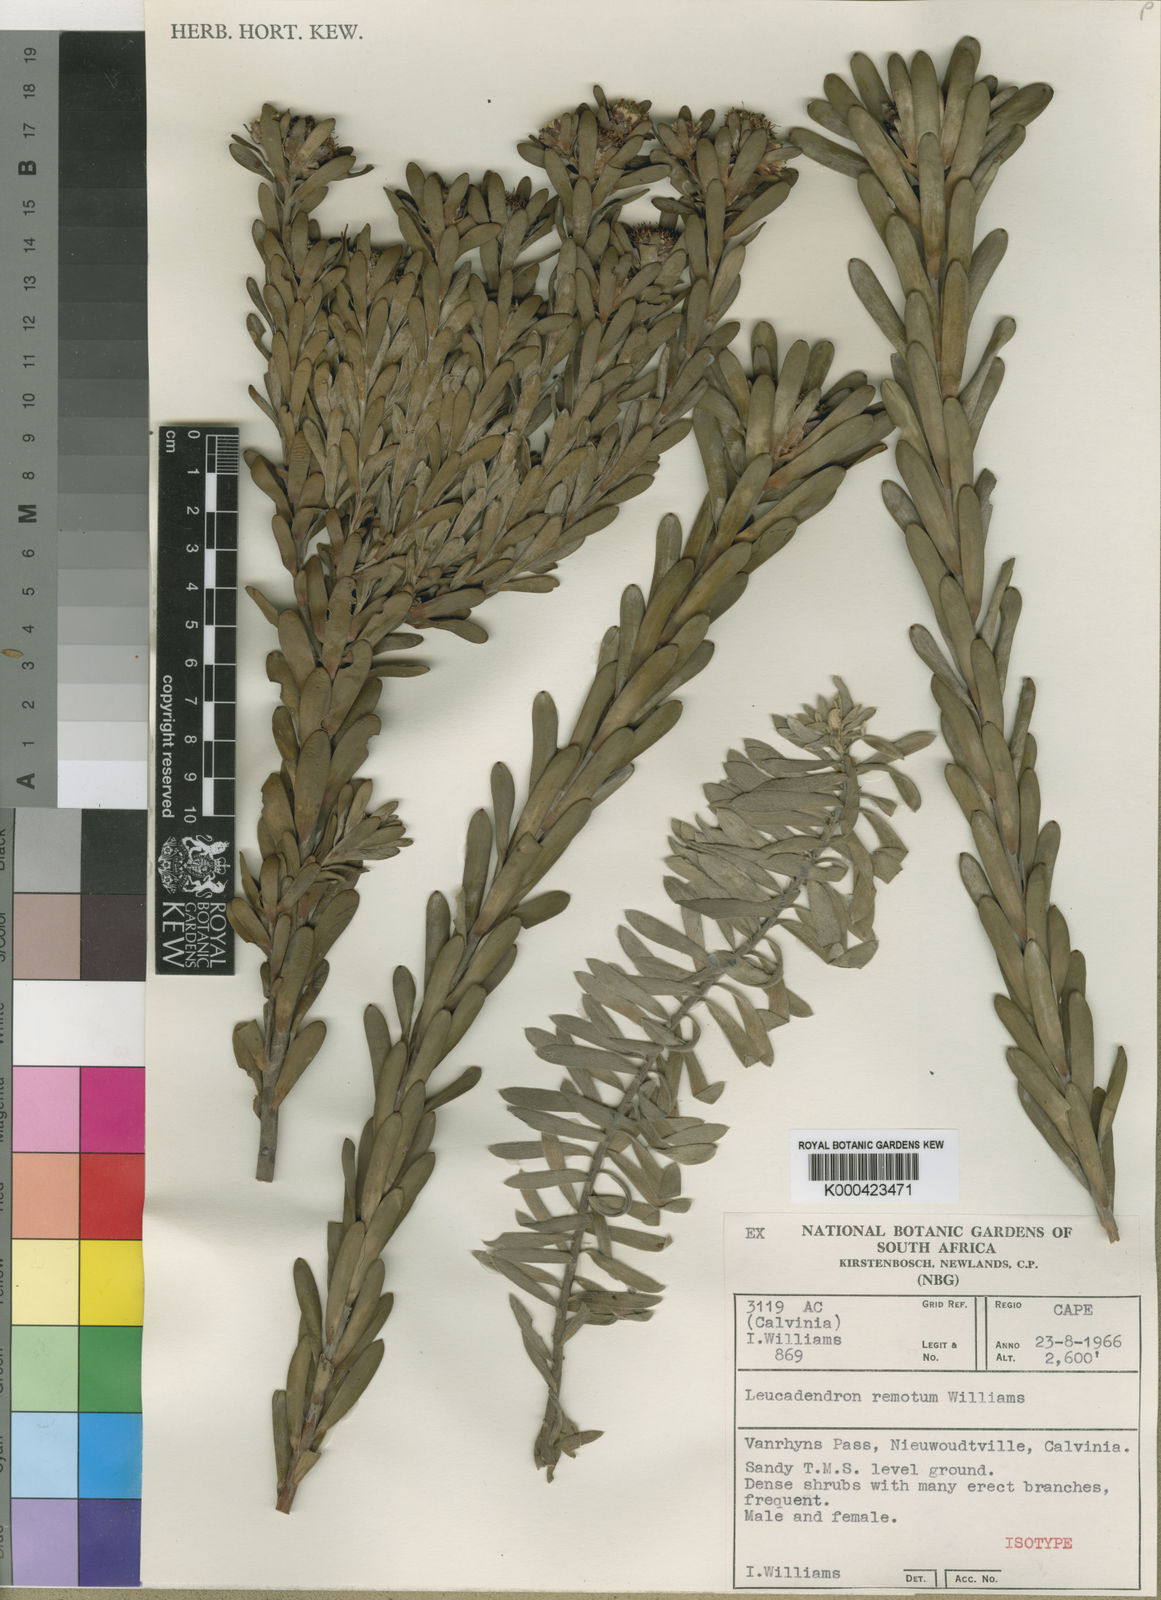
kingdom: Plantae
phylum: Tracheophyta
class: Magnoliopsida
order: Proteales
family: Proteaceae
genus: Leucadendron
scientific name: Leucadendron remotum
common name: Nieuwoudtville conebush
